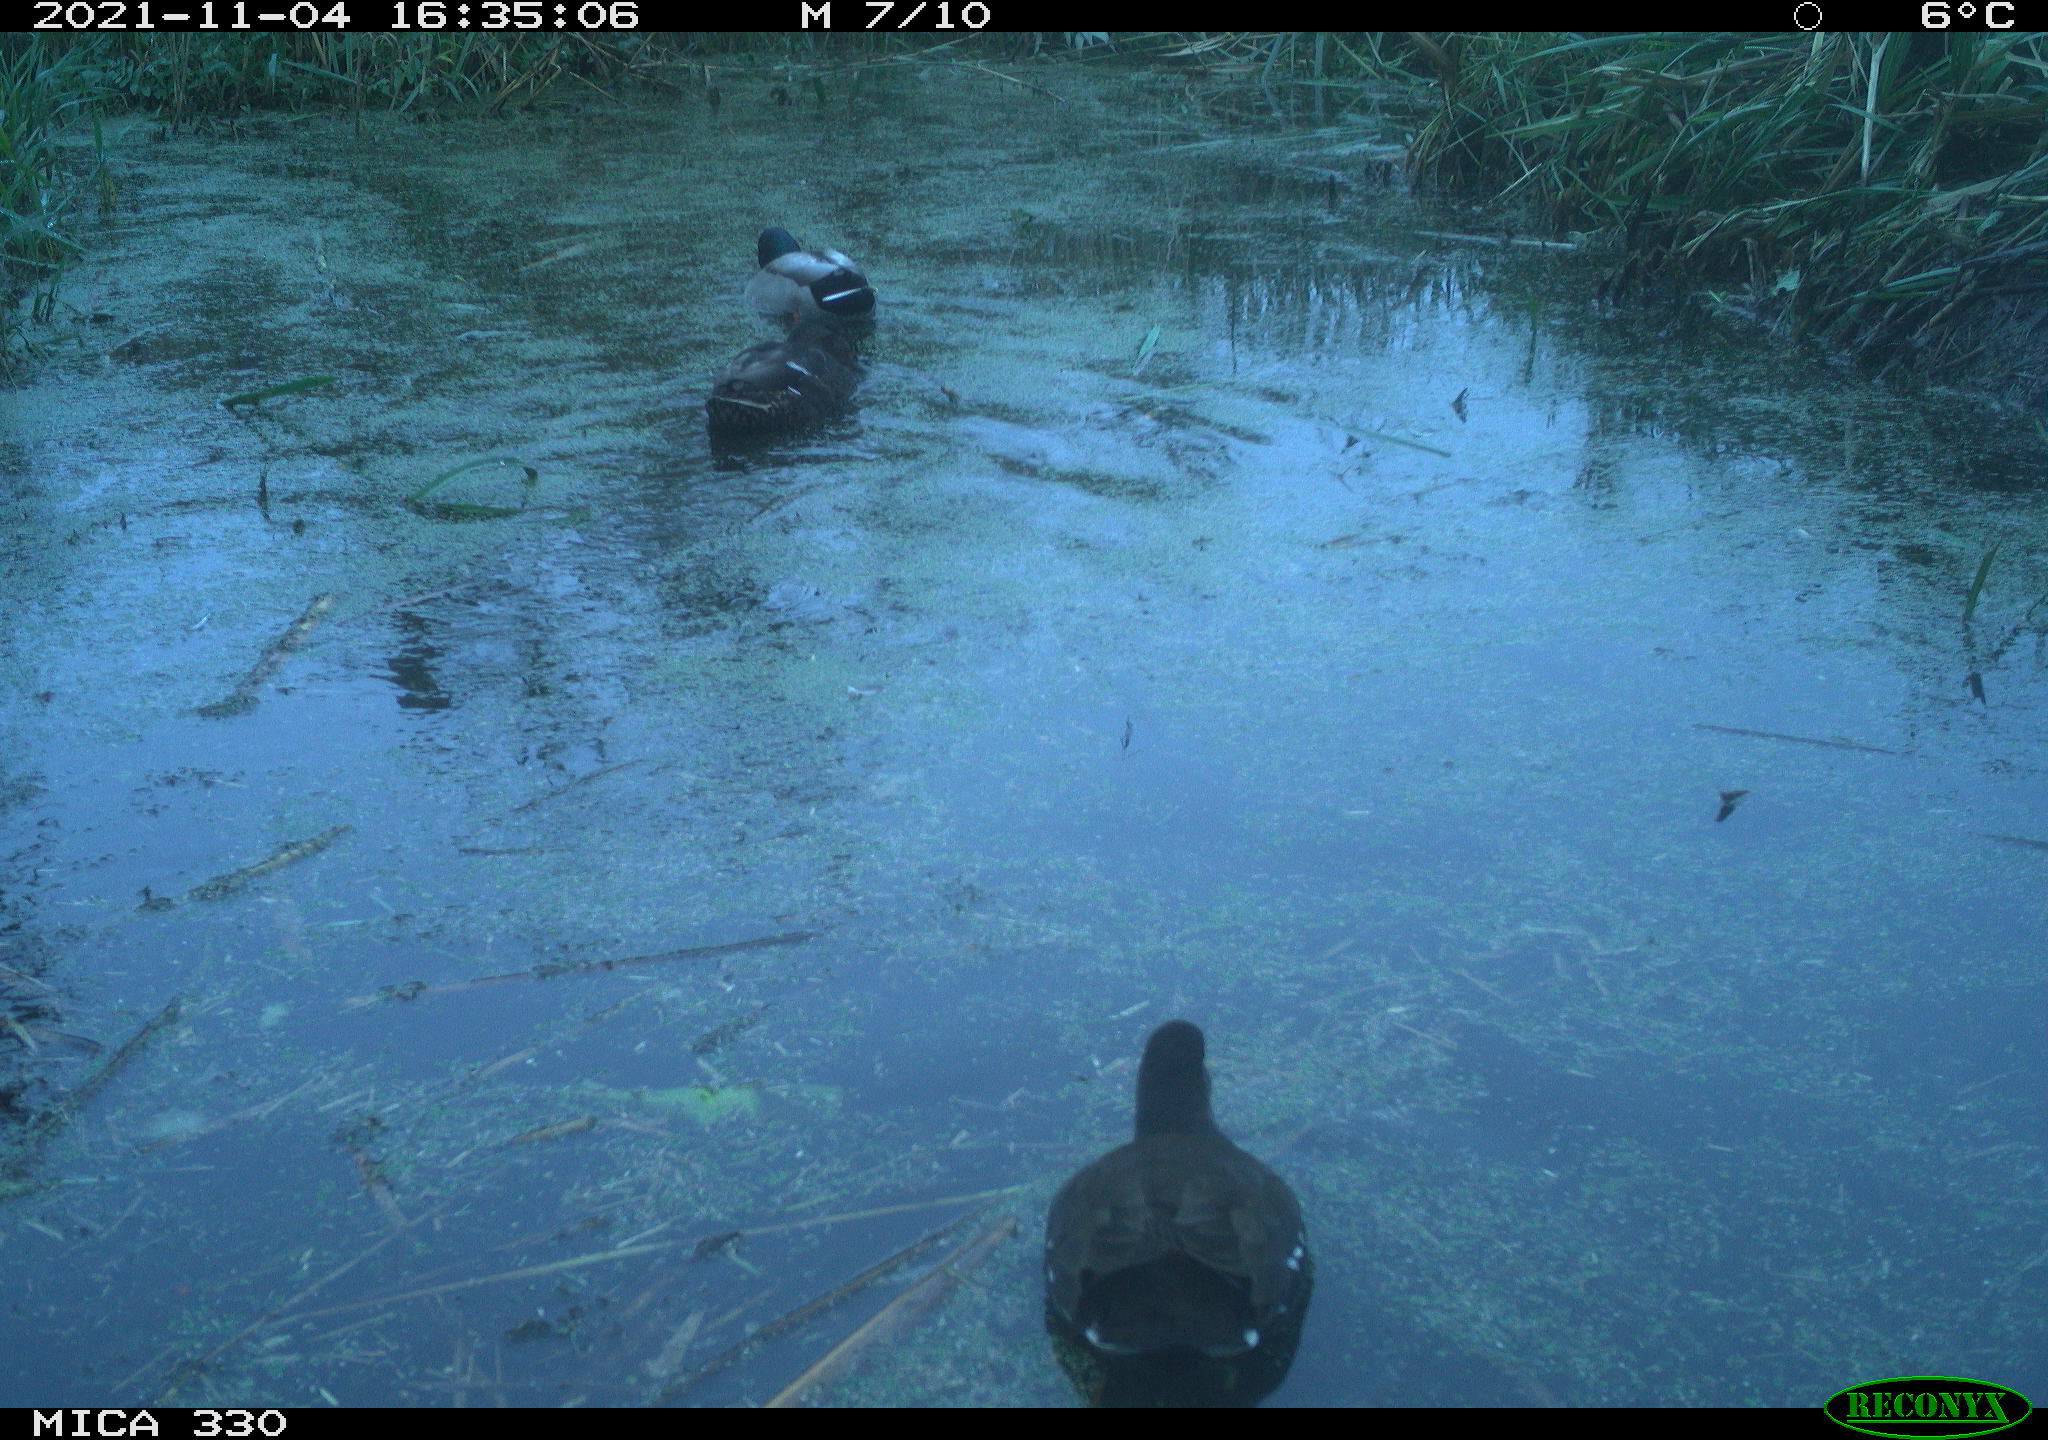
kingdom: Animalia
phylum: Chordata
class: Aves
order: Anseriformes
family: Anatidae
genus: Anas
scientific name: Anas platyrhynchos
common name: Mallard
